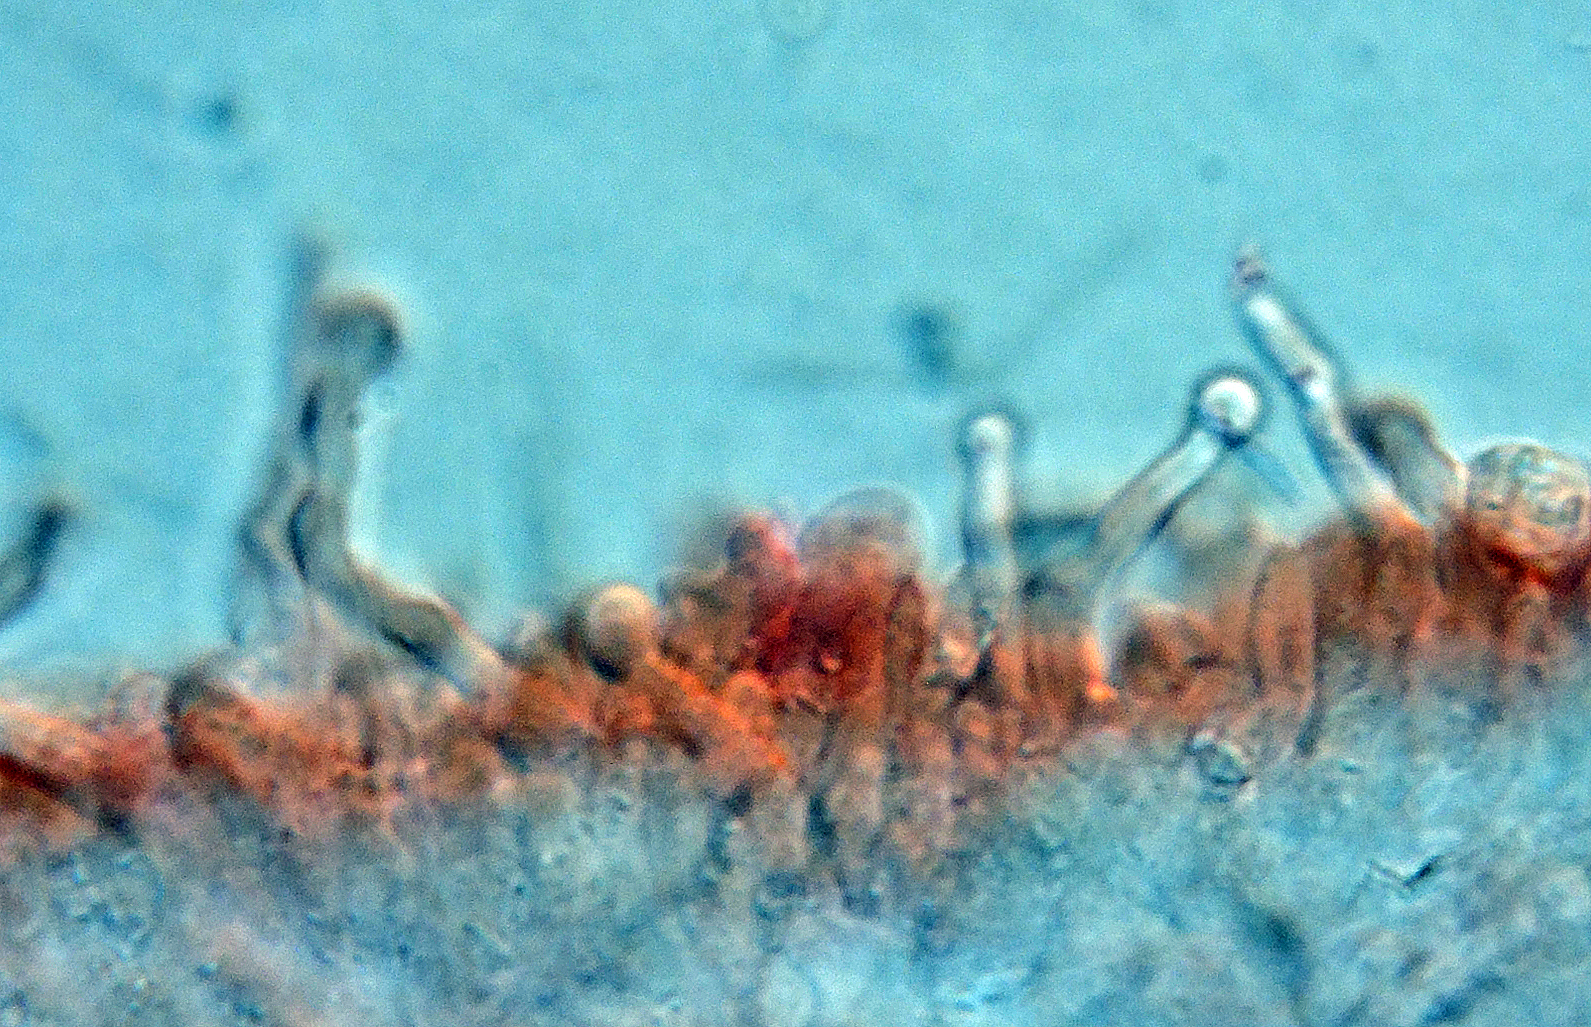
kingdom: Fungi
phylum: Basidiomycota
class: Agaricomycetes
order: Agaricales
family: Mycenaceae
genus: Hemimycena
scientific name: Hemimycena mauretanica
